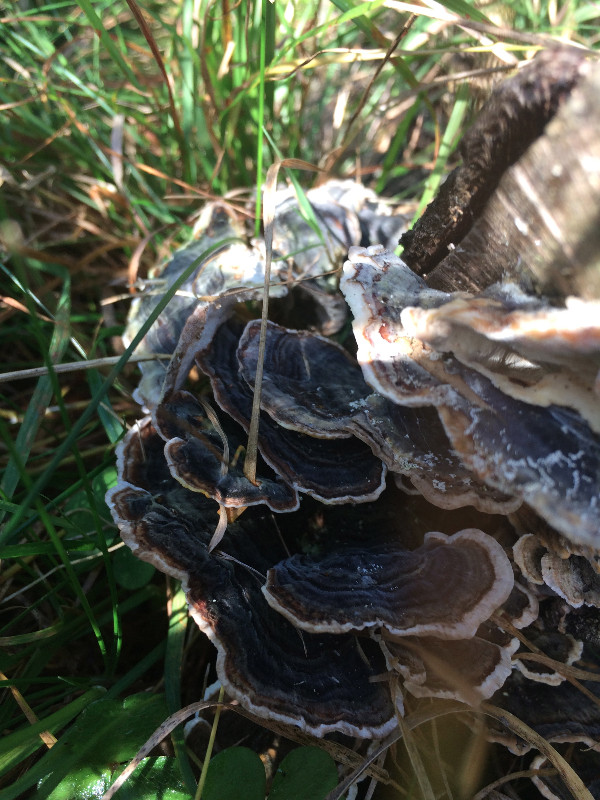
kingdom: Fungi
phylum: Basidiomycota
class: Agaricomycetes
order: Polyporales
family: Polyporaceae
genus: Trametes
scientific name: Trametes versicolor
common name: broget læderporesvamp
